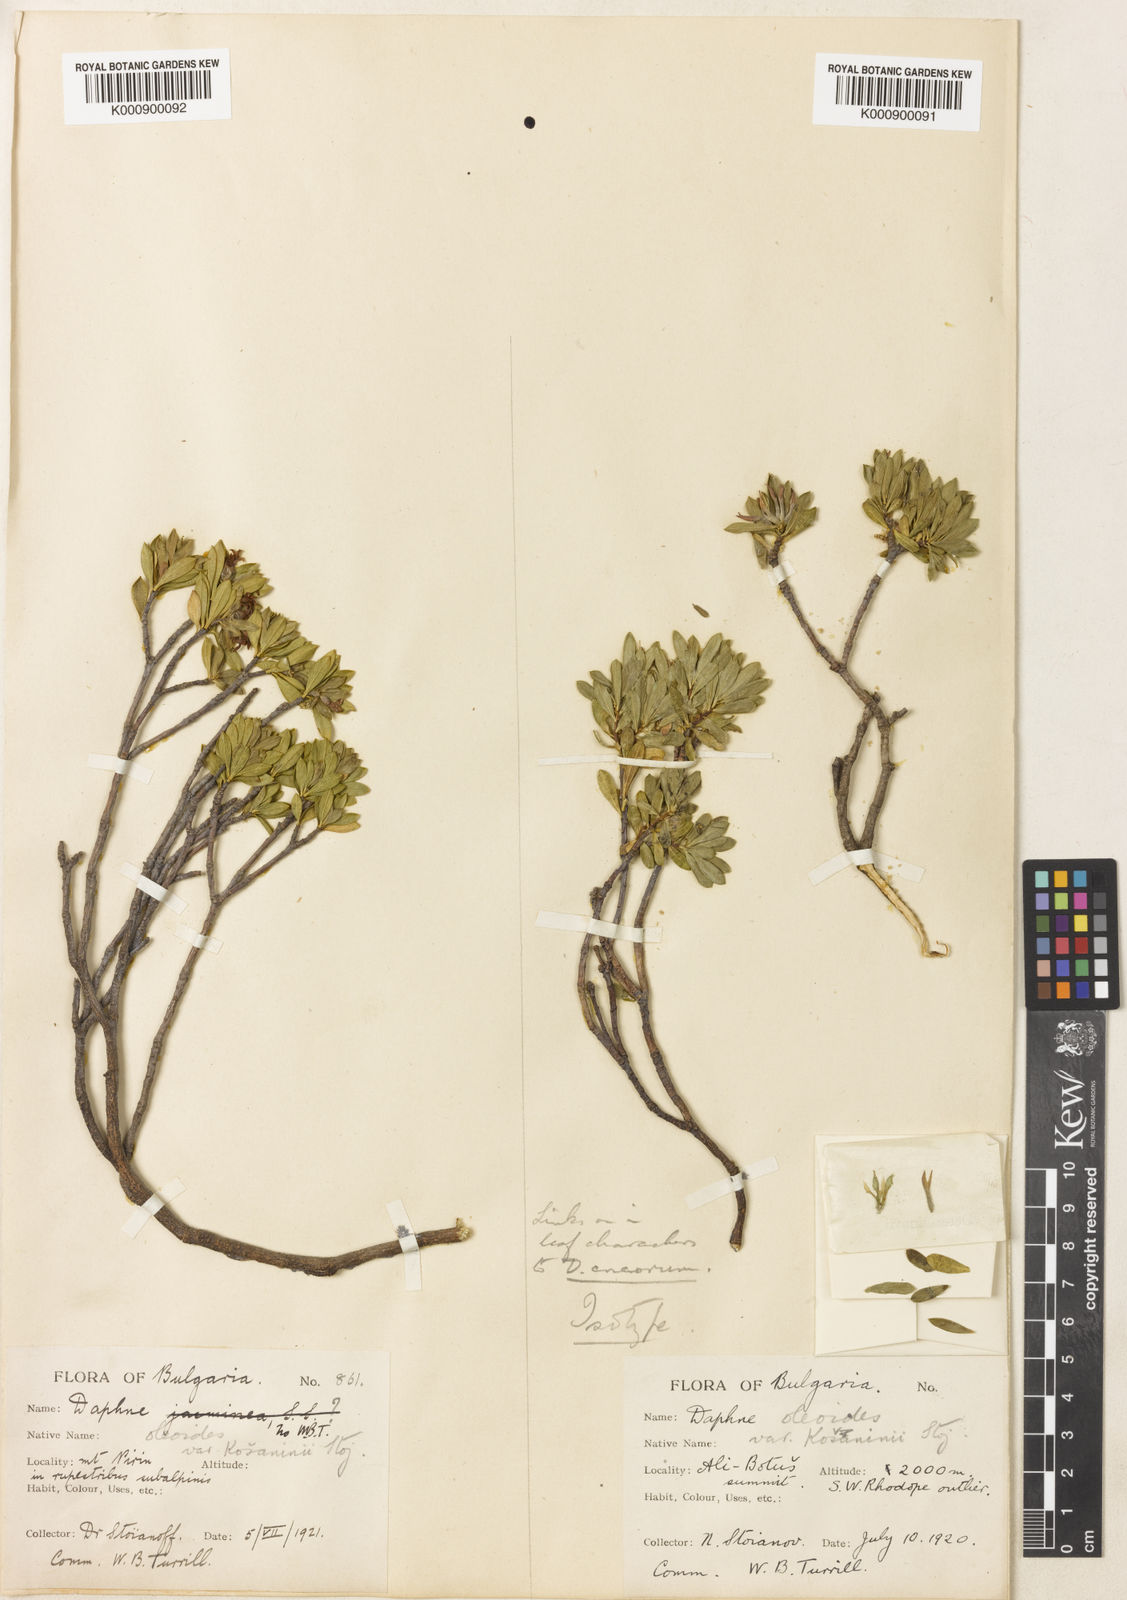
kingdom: Plantae
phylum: Tracheophyta
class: Magnoliopsida
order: Malvales
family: Thymelaeaceae
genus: Daphne
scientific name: Daphne kosaninii
